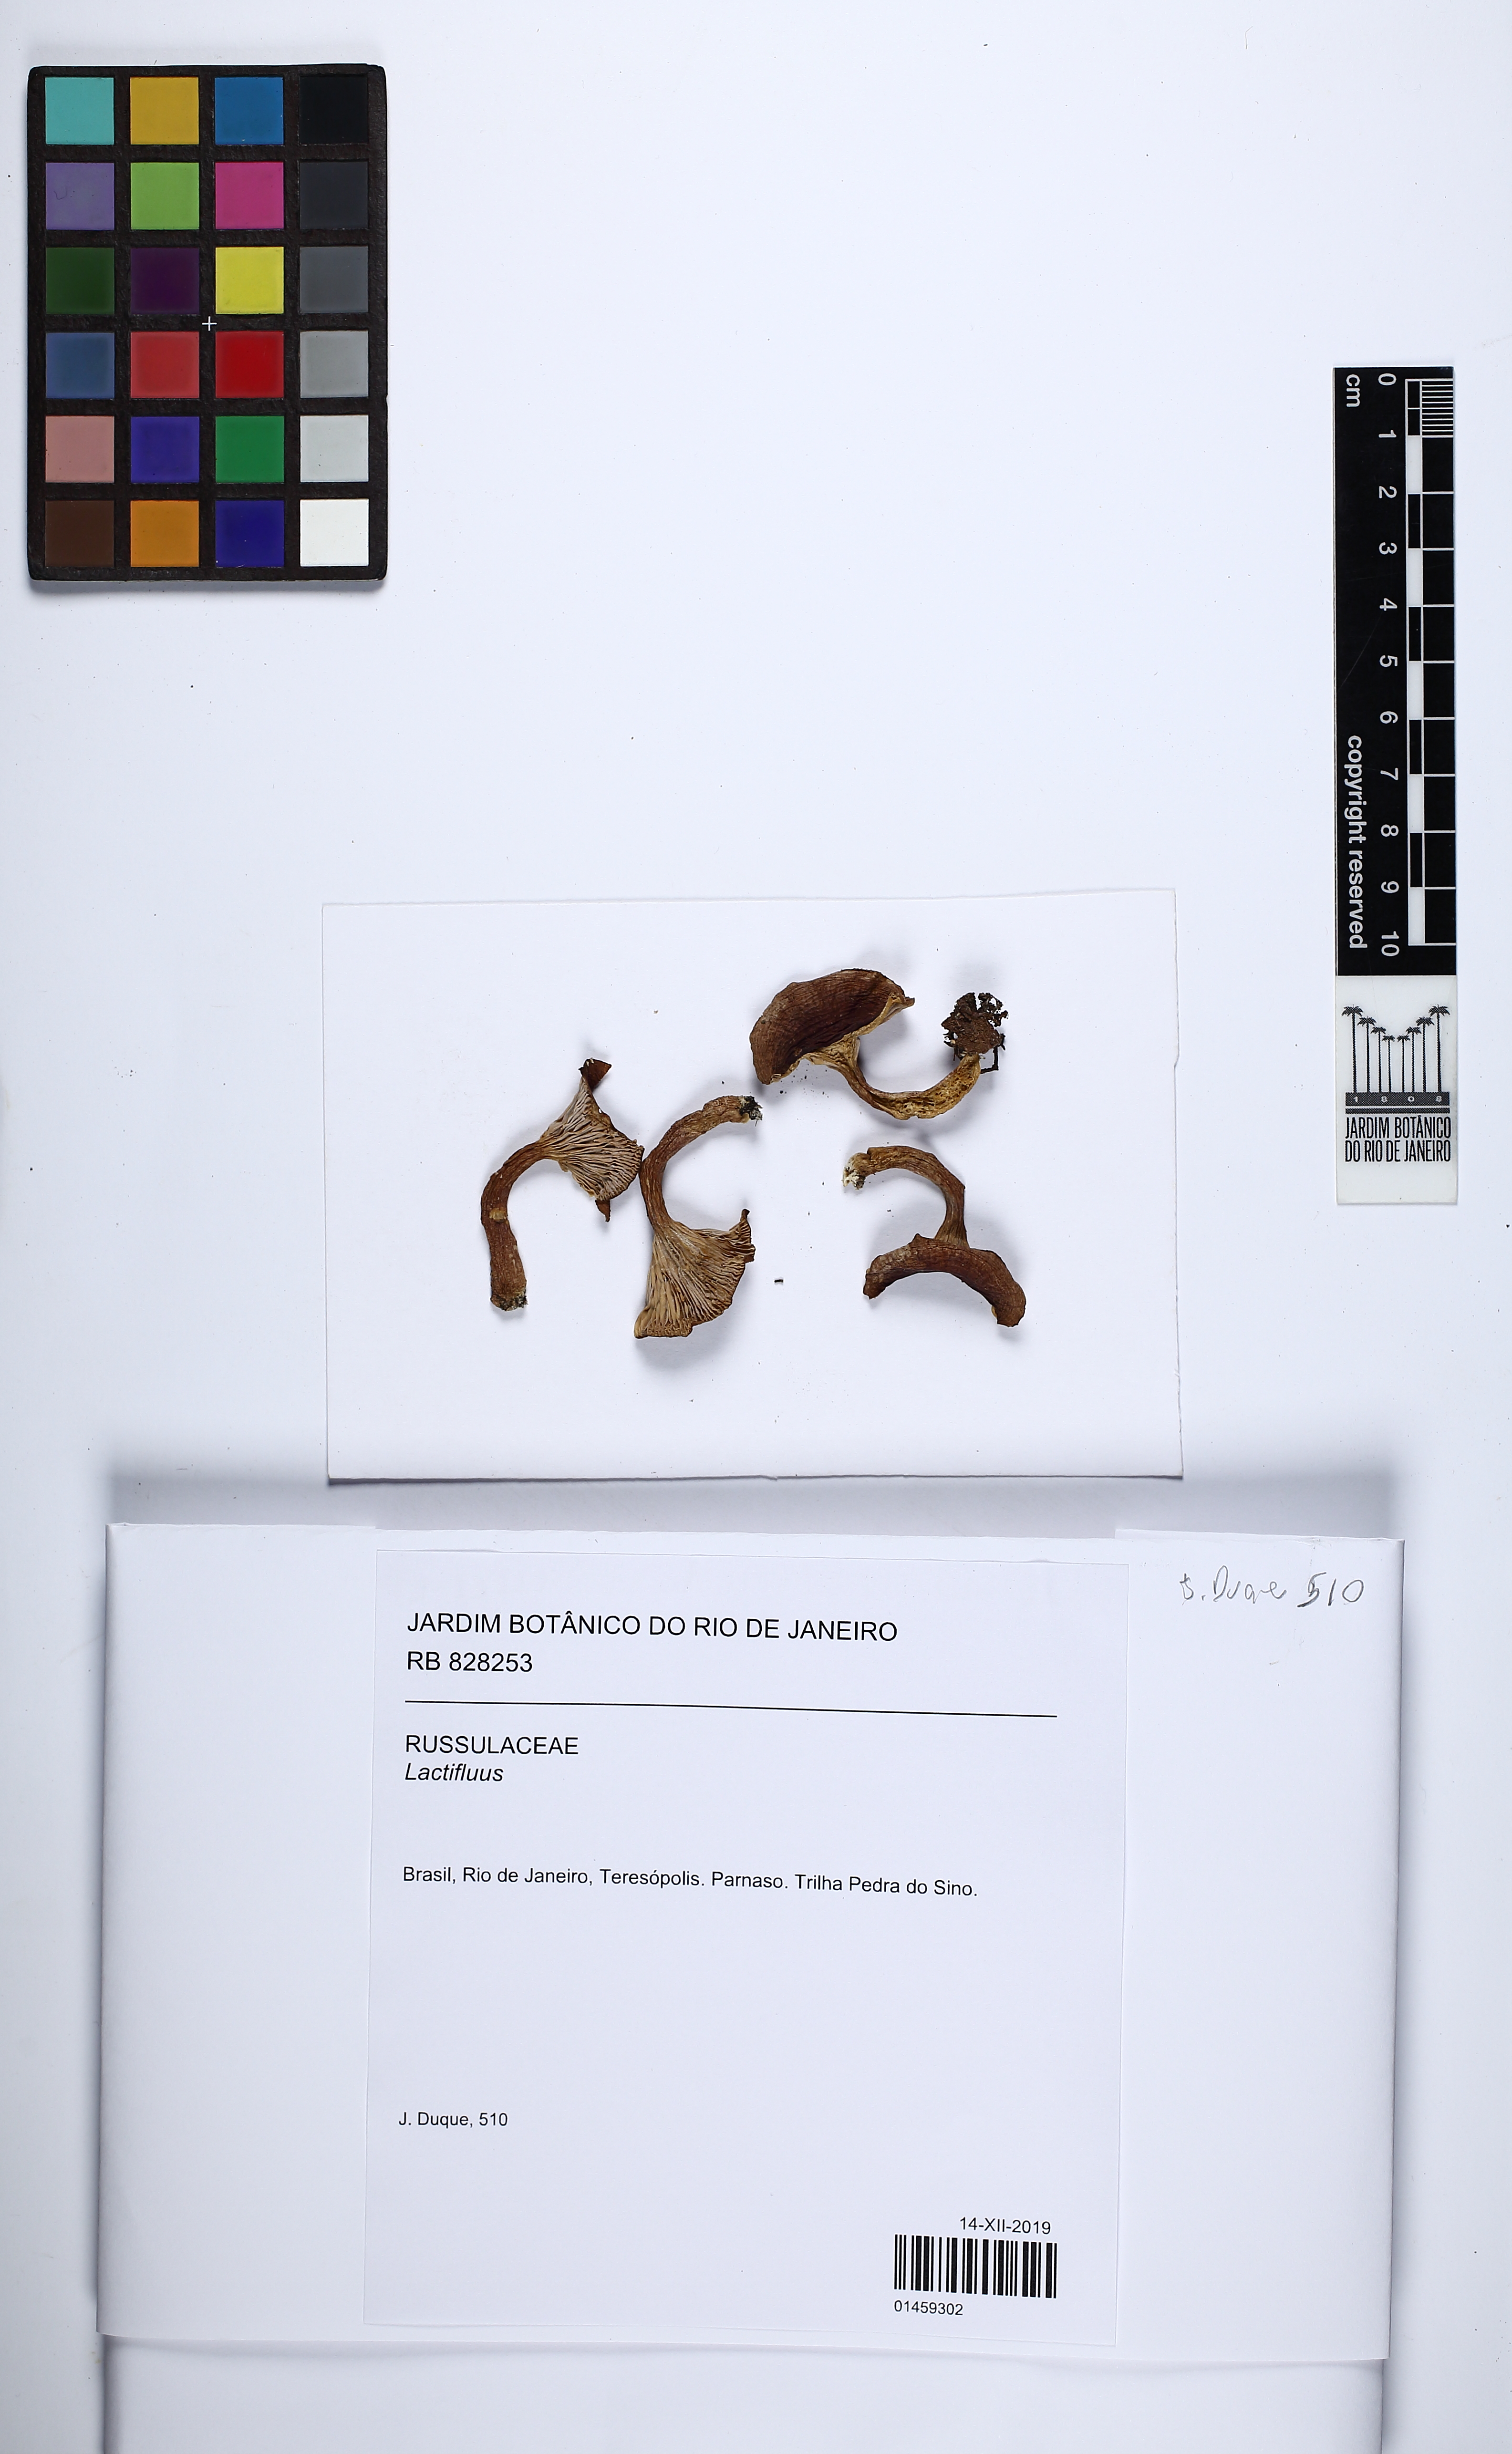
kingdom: Fungi
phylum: Basidiomycota
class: Agaricomycetes
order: Russulales
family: Russulaceae
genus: Lactifluus
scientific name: Lactifluus
